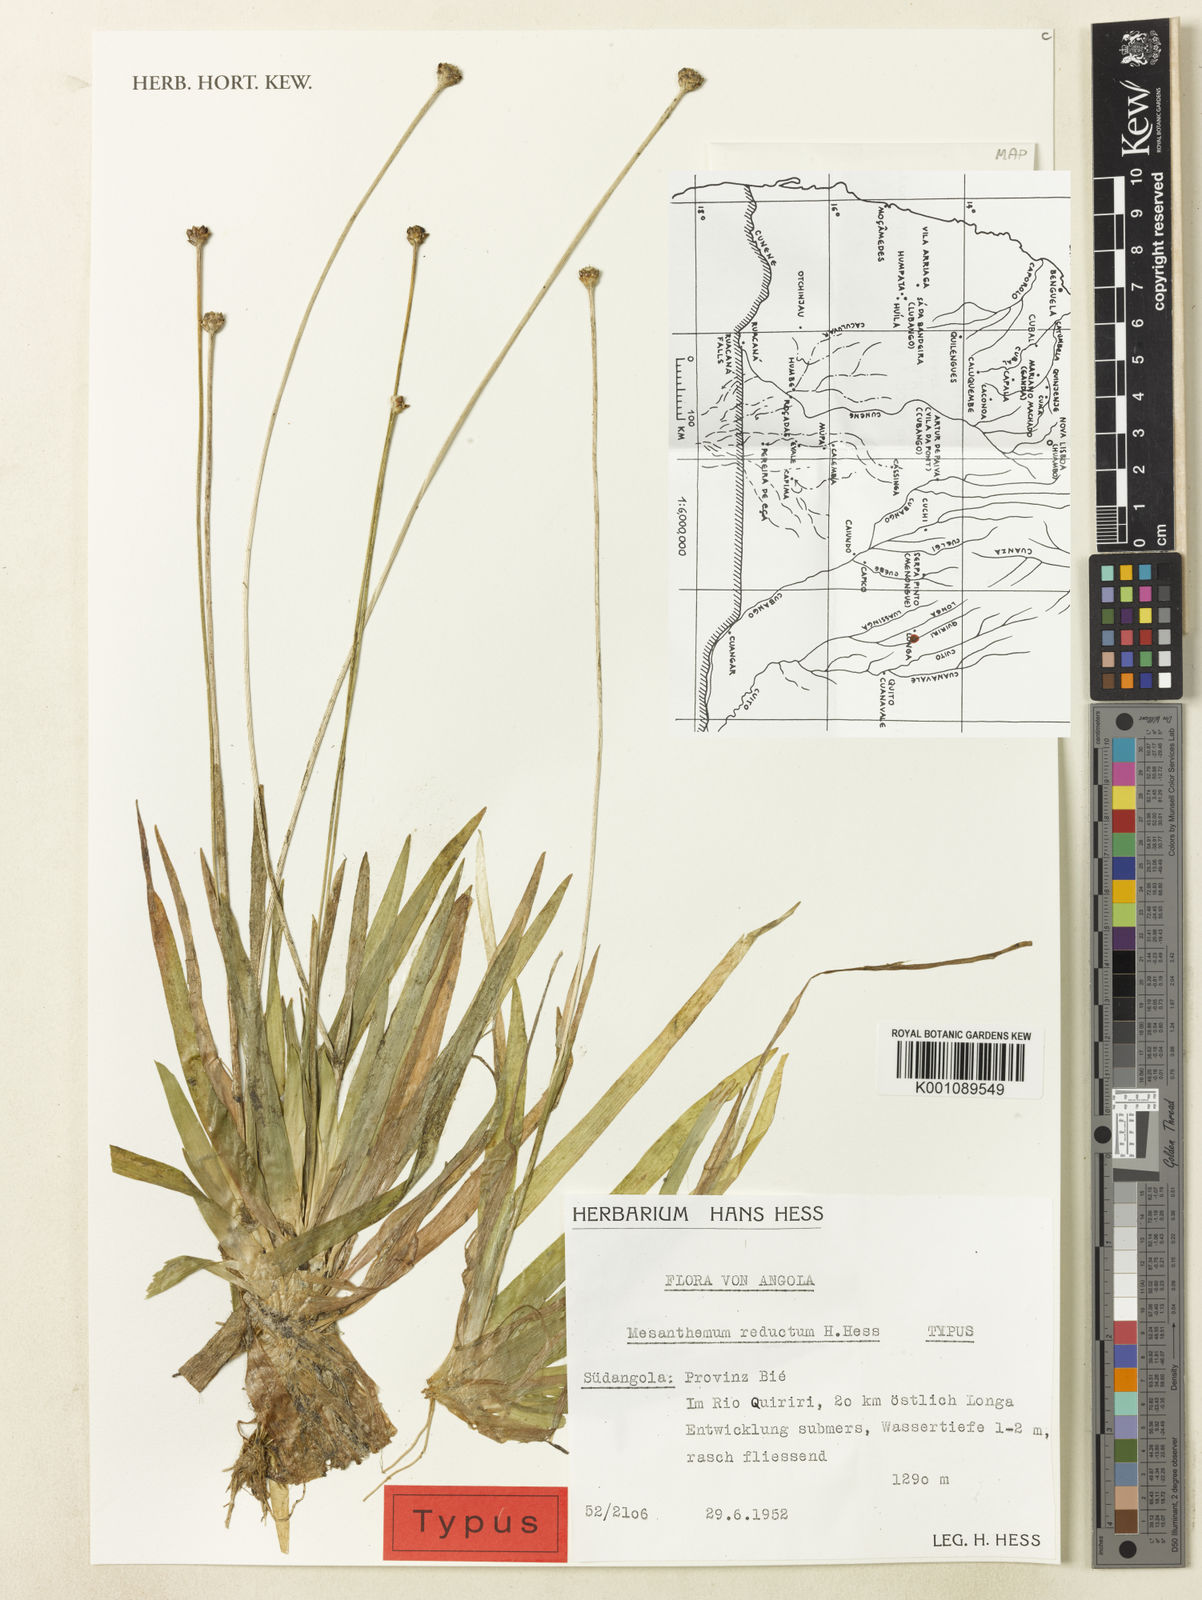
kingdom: Plantae
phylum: Tracheophyta
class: Liliopsida
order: Poales
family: Eriocaulaceae
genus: Mesanthemum
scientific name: Mesanthemum reductum
